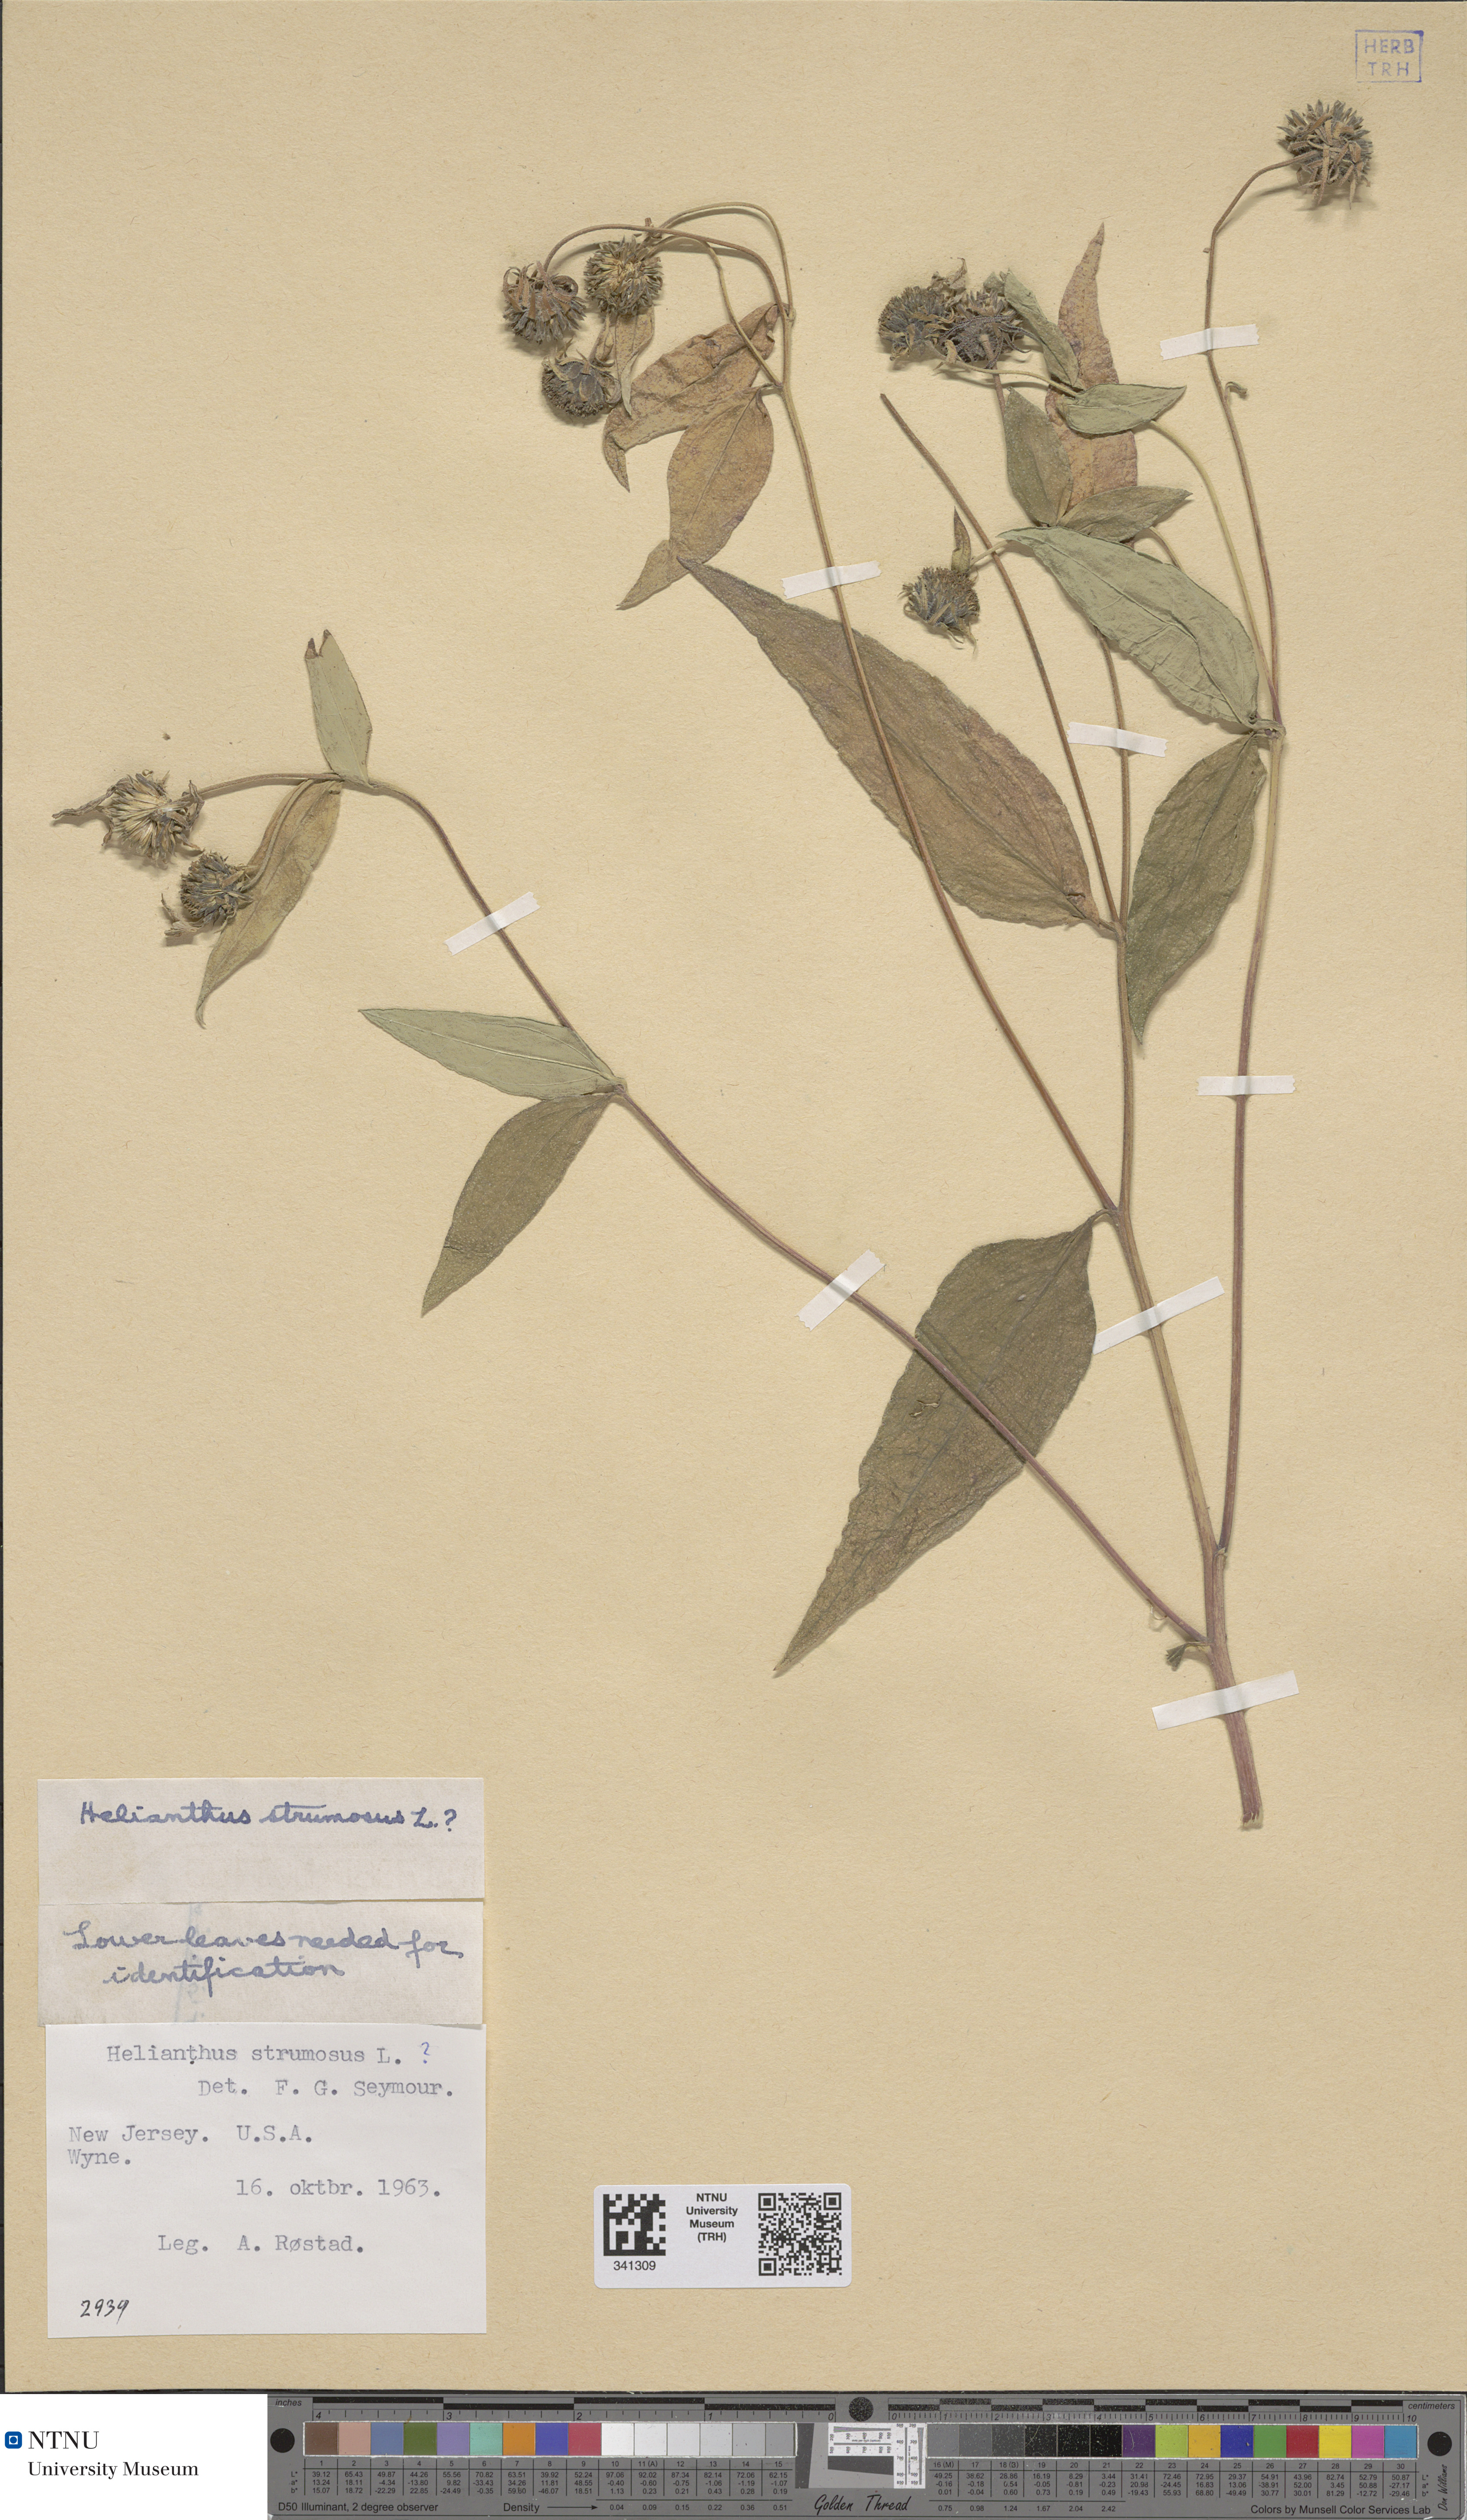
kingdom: Plantae
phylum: Tracheophyta
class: Magnoliopsida
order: Asterales
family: Asteraceae
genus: Helianthus
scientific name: Helianthus strumosus
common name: Pale-leaved sunflower
